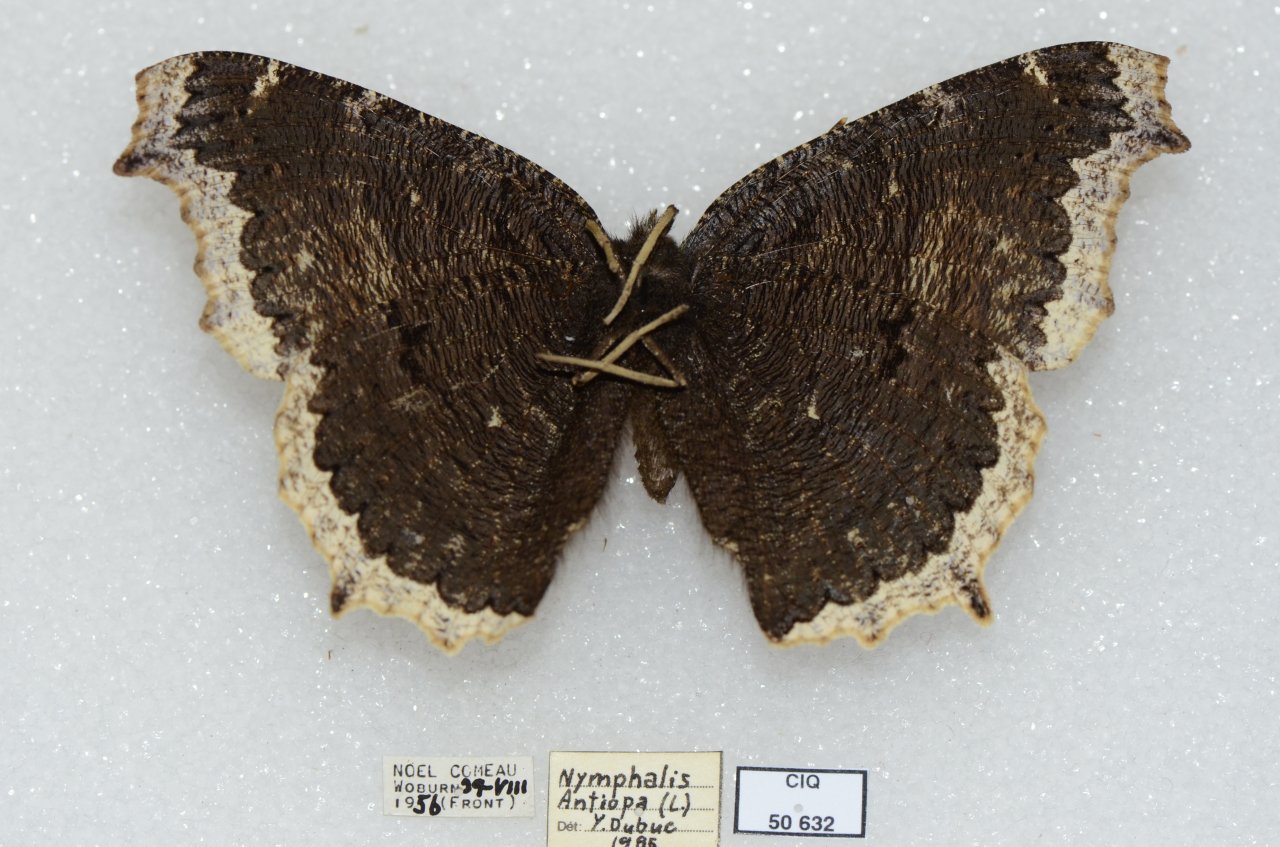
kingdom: Animalia
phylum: Arthropoda
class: Insecta
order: Lepidoptera
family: Nymphalidae
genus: Nymphalis
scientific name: Nymphalis antiopa
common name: Mourning Cloak
